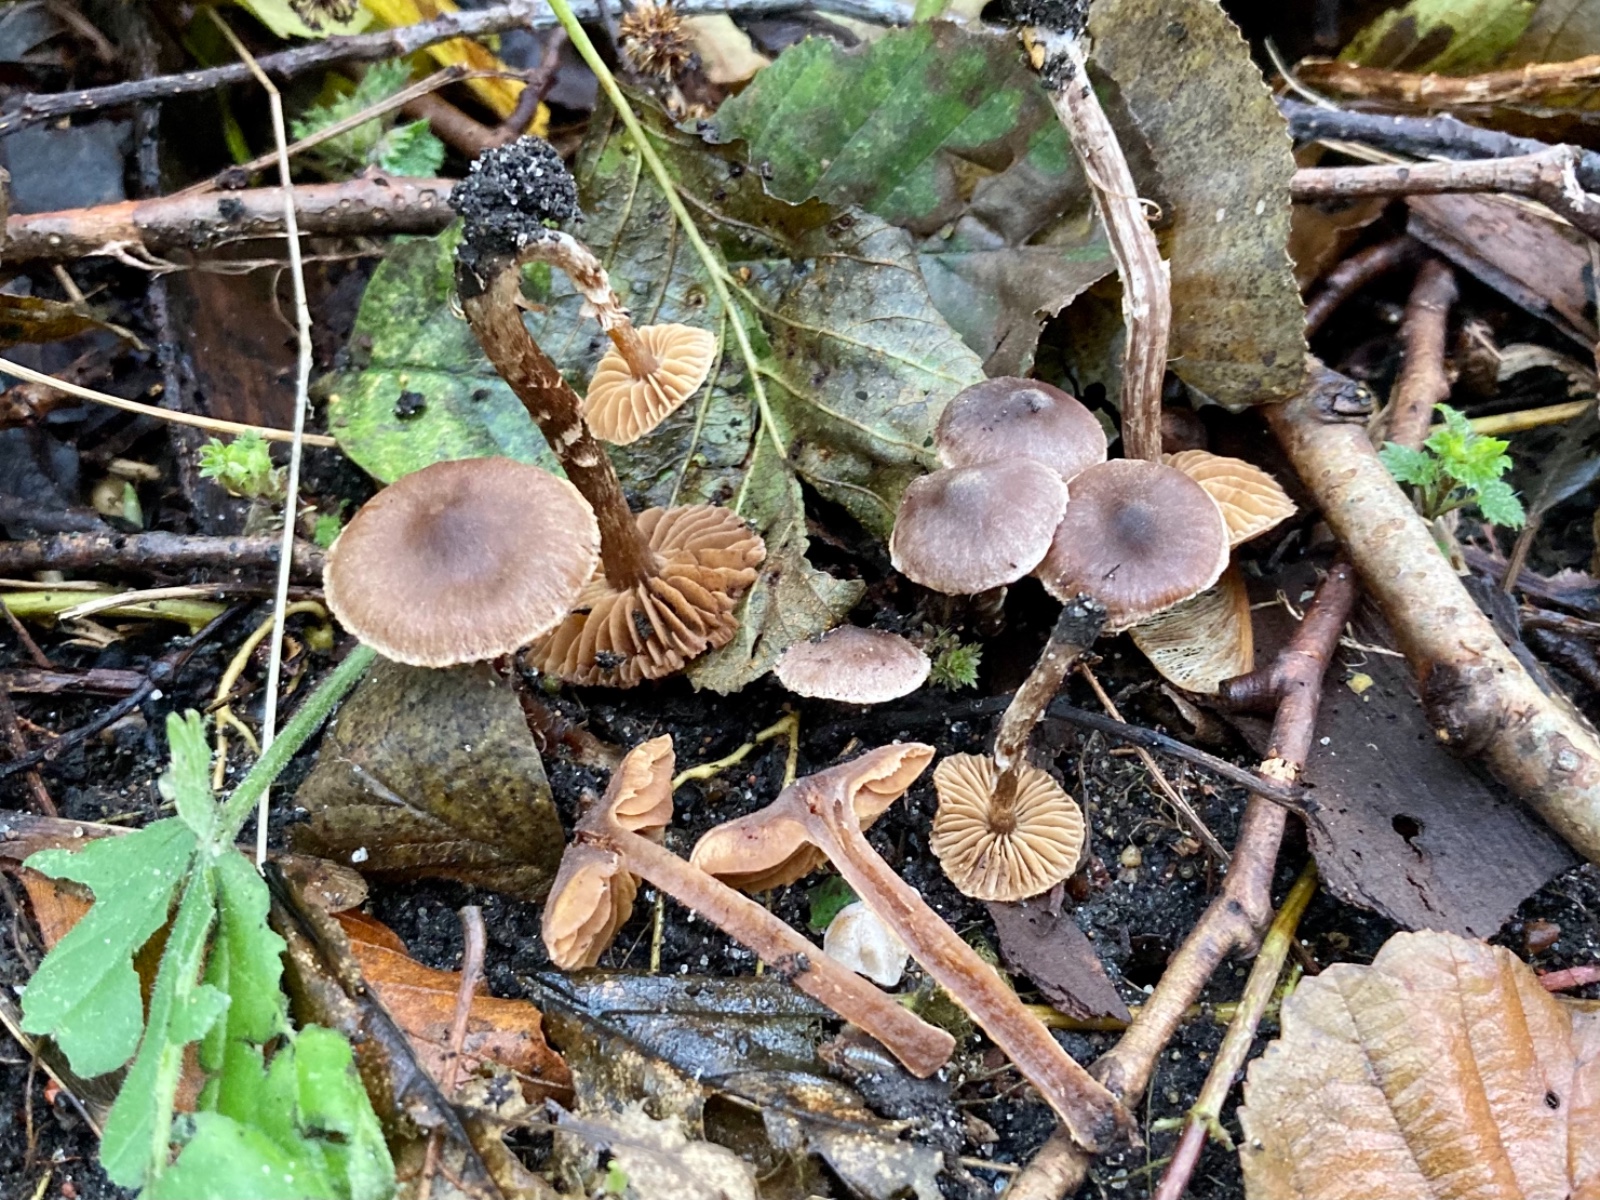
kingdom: Fungi
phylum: Basidiomycota
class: Agaricomycetes
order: Agaricales
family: Cortinariaceae
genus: Cortinarius
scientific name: Cortinarius griseocarneus
